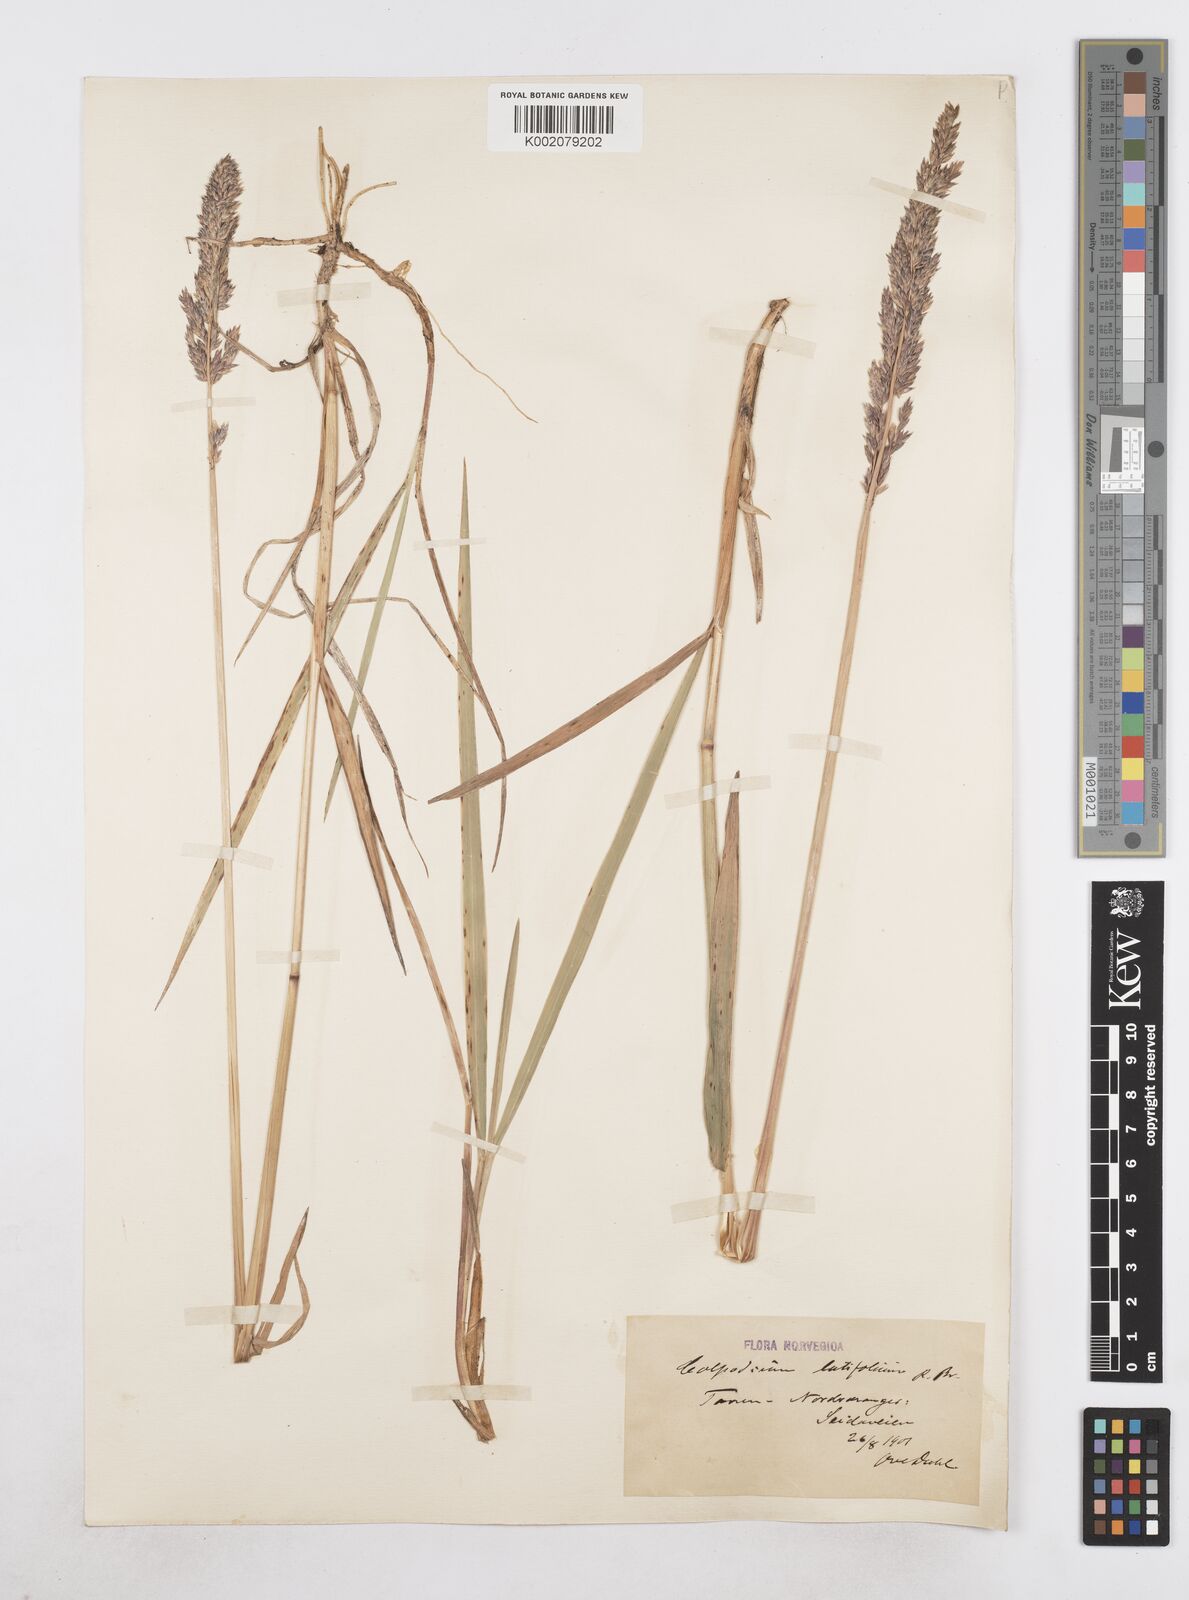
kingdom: Plantae
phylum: Tracheophyta
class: Liliopsida
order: Poales
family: Poaceae
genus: Arctagrostis
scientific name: Arctagrostis latifolia
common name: Arctic grass
